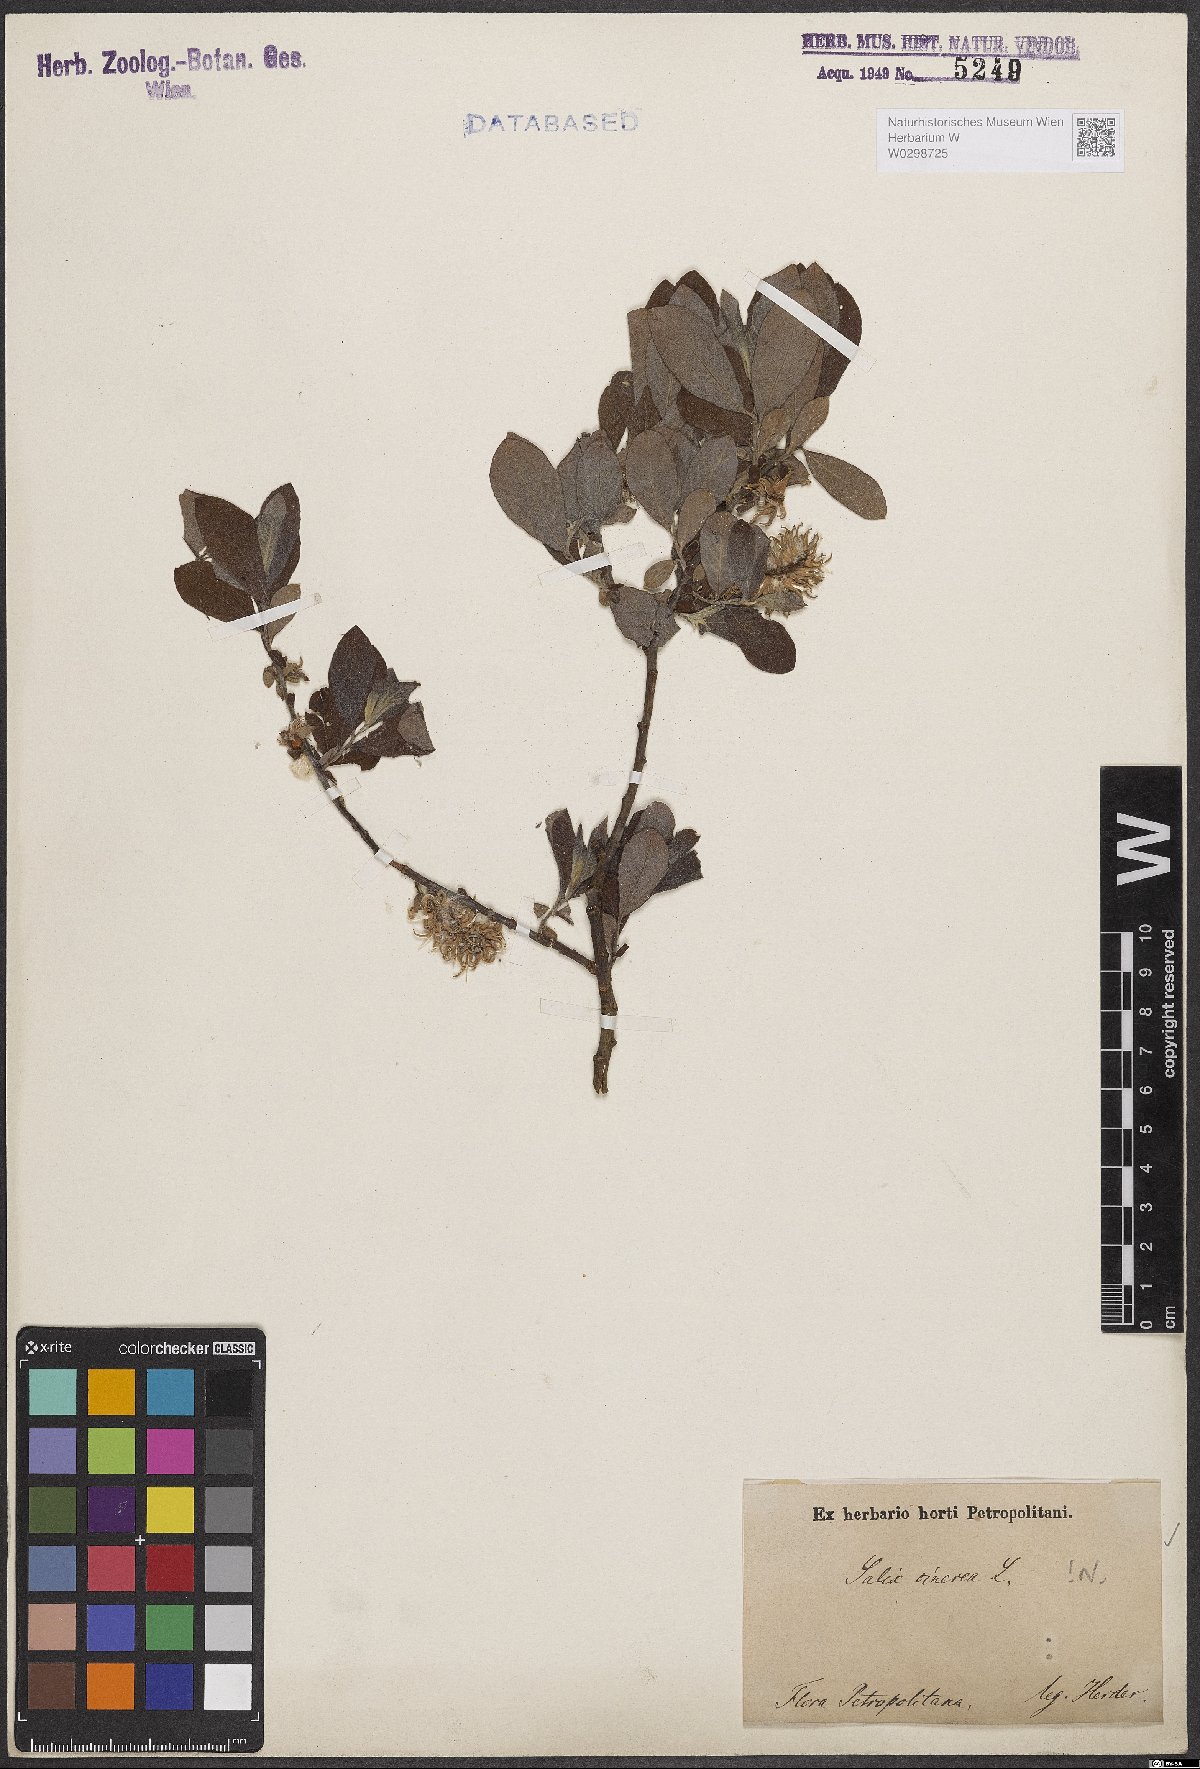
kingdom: Plantae
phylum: Tracheophyta
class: Magnoliopsida
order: Malpighiales
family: Salicaceae
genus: Salix
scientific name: Salix cinerea
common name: Common sallow
